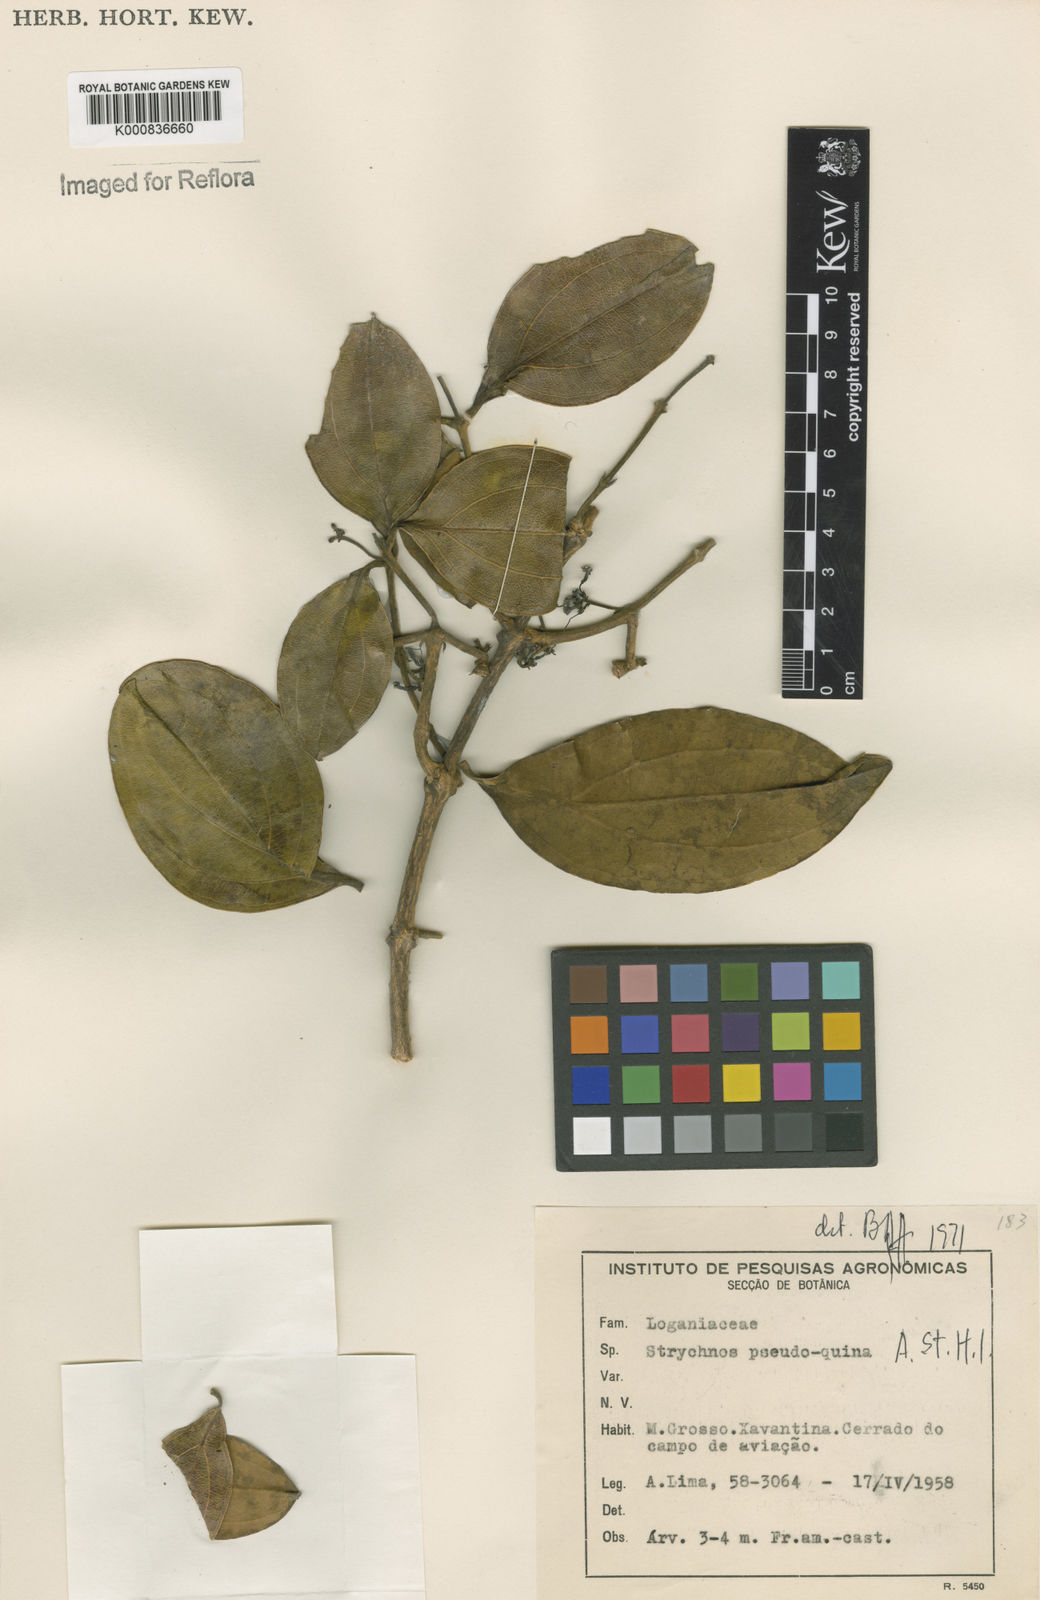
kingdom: Plantae
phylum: Tracheophyta
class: Magnoliopsida
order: Gentianales
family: Loganiaceae
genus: Strychnos
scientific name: Strychnos pseudoquina
